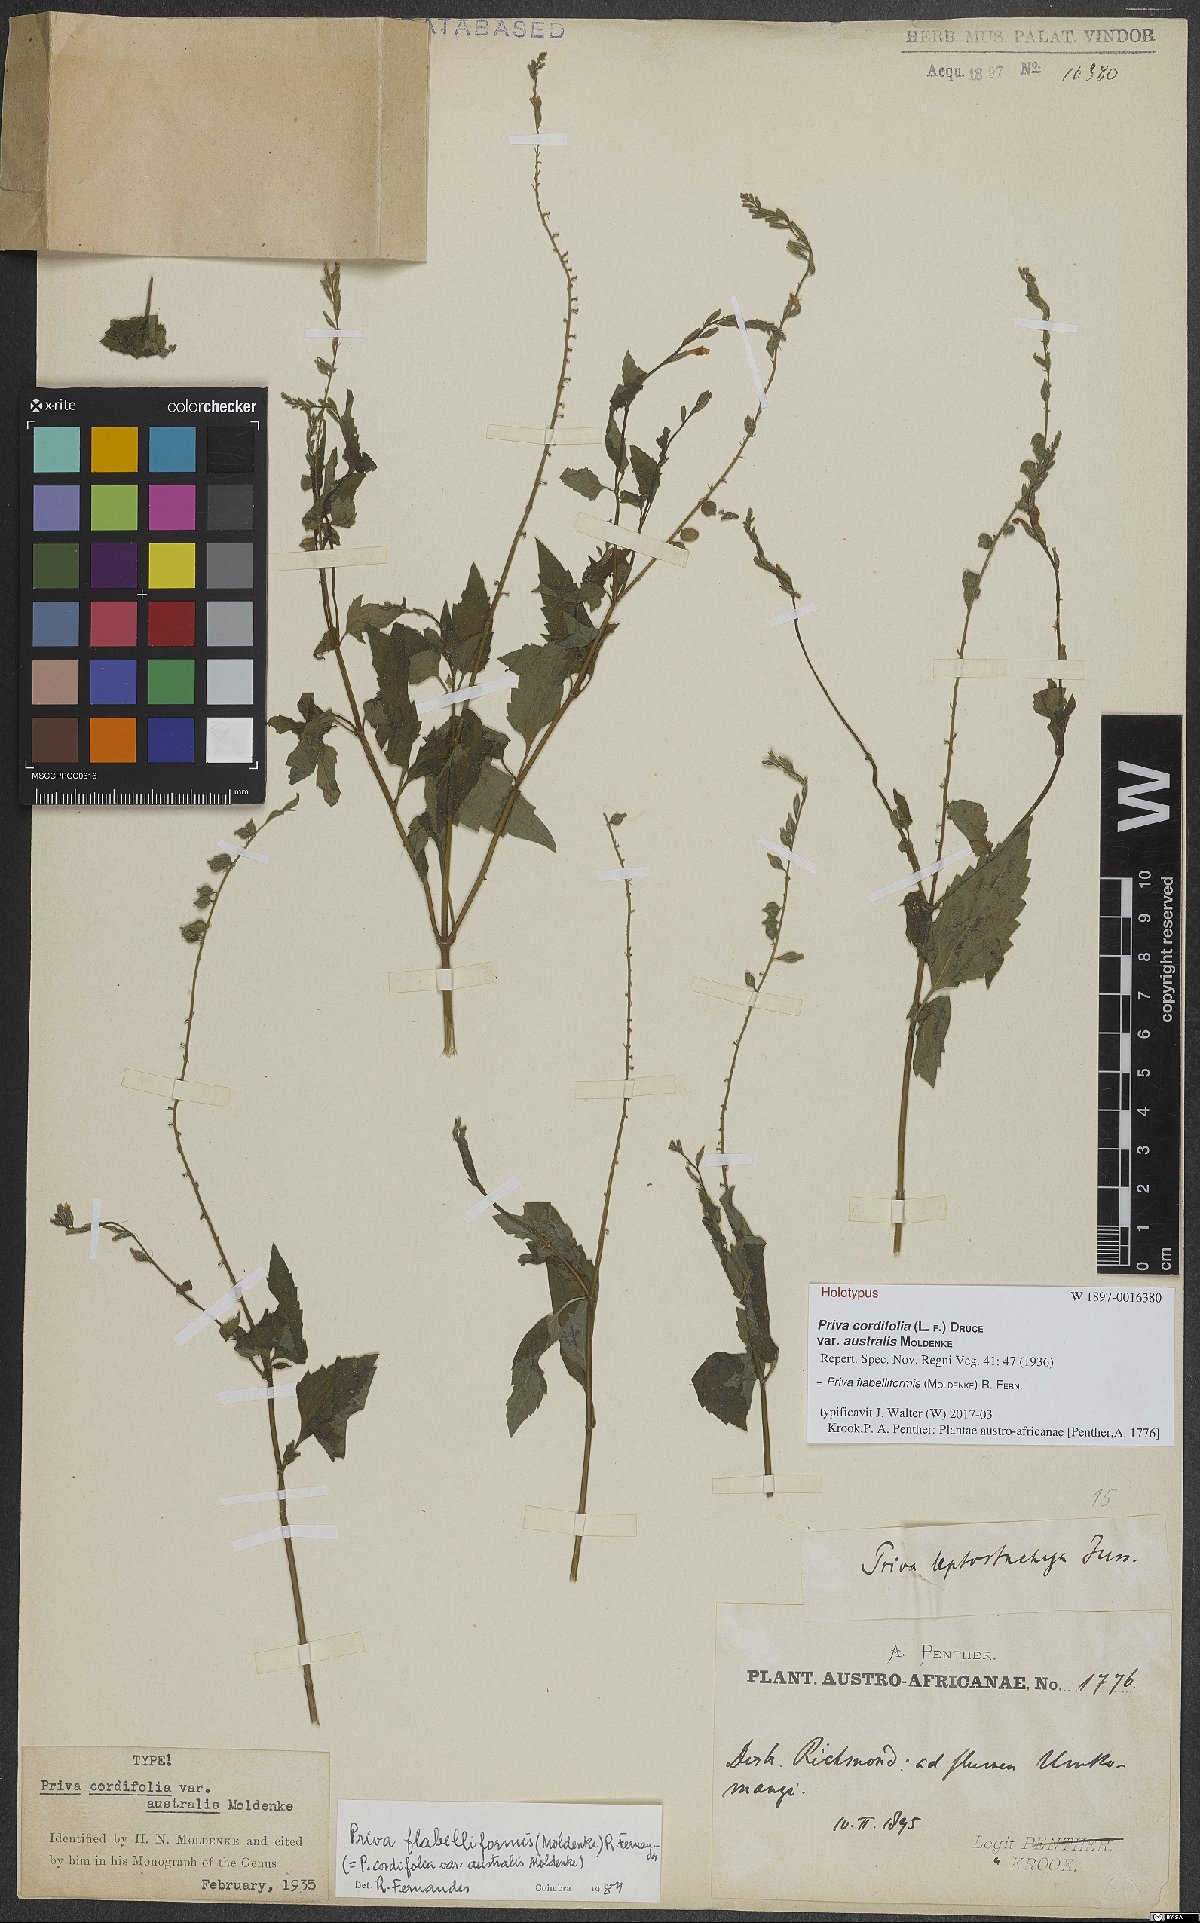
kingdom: Plantae
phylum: Tracheophyta
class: Magnoliopsida
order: Lamiales
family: Verbenaceae
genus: Priva
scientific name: Priva flabelliformis
